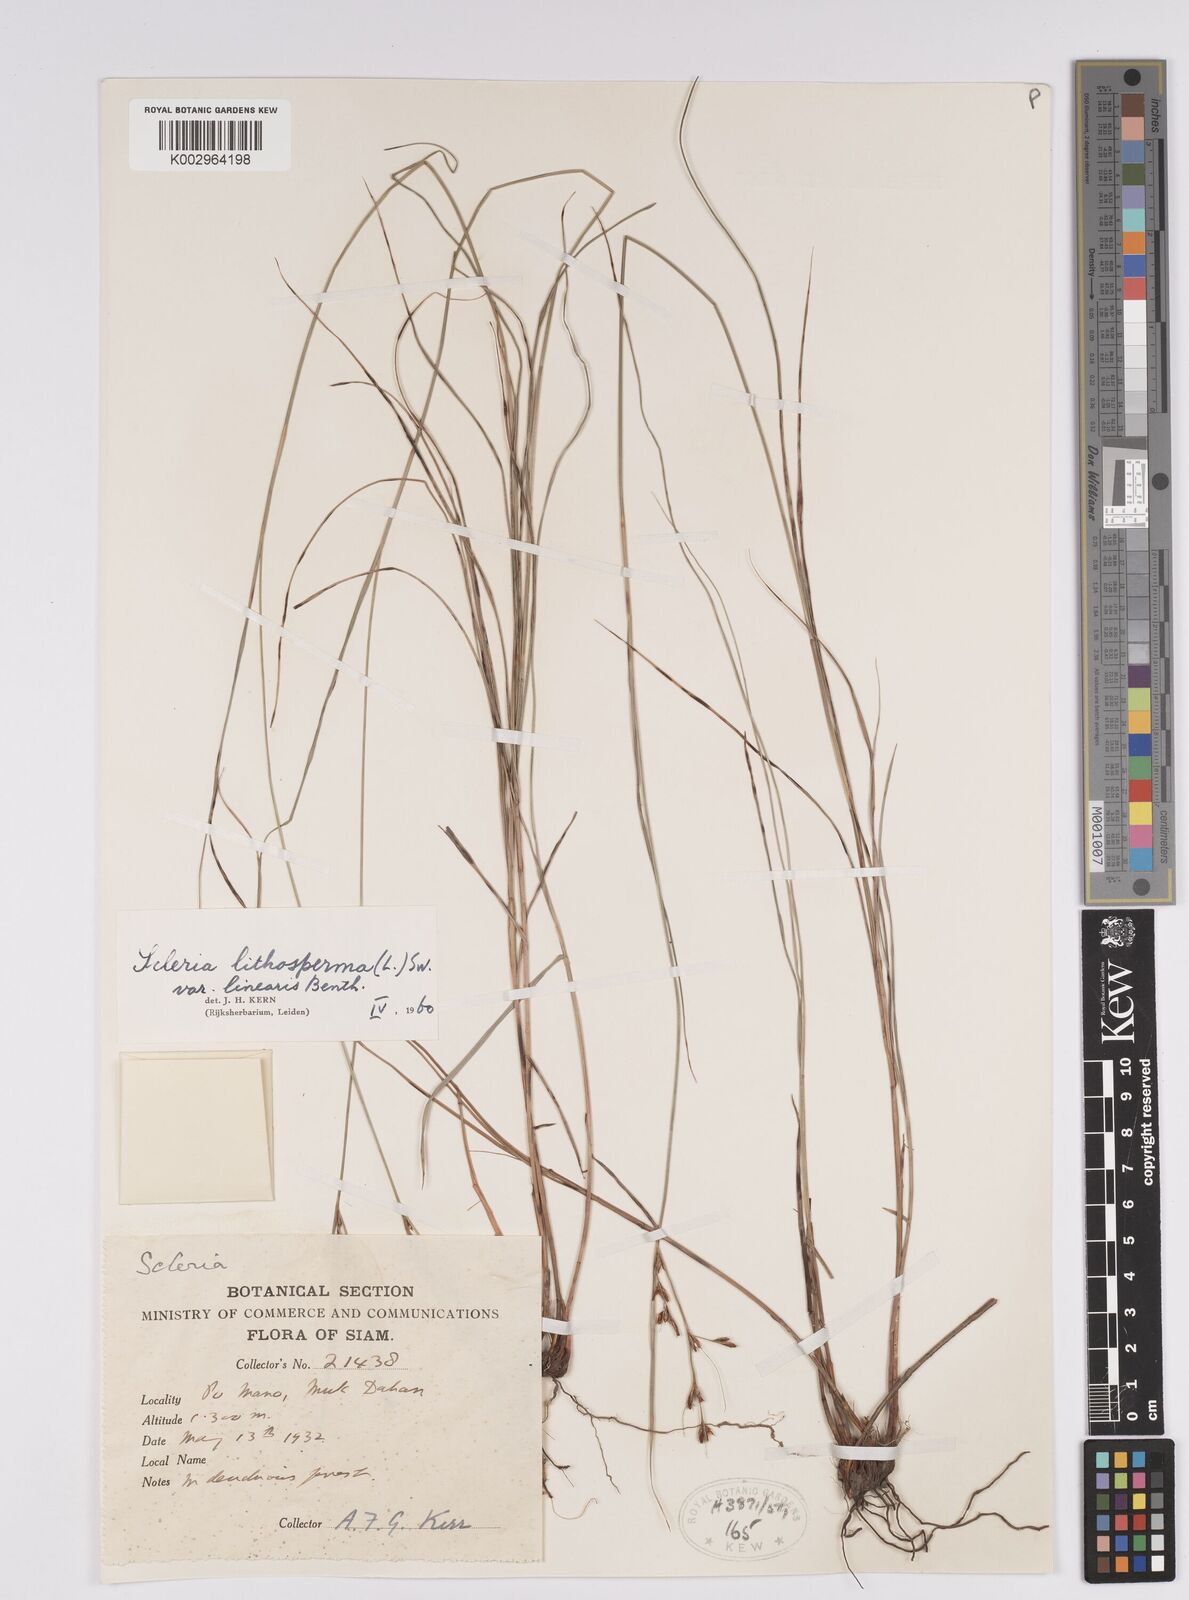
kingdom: Plantae
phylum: Tracheophyta
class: Liliopsida
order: Poales
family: Cyperaceae
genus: Scleria
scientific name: Scleria lithosperma
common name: Florida keys nut-rush
